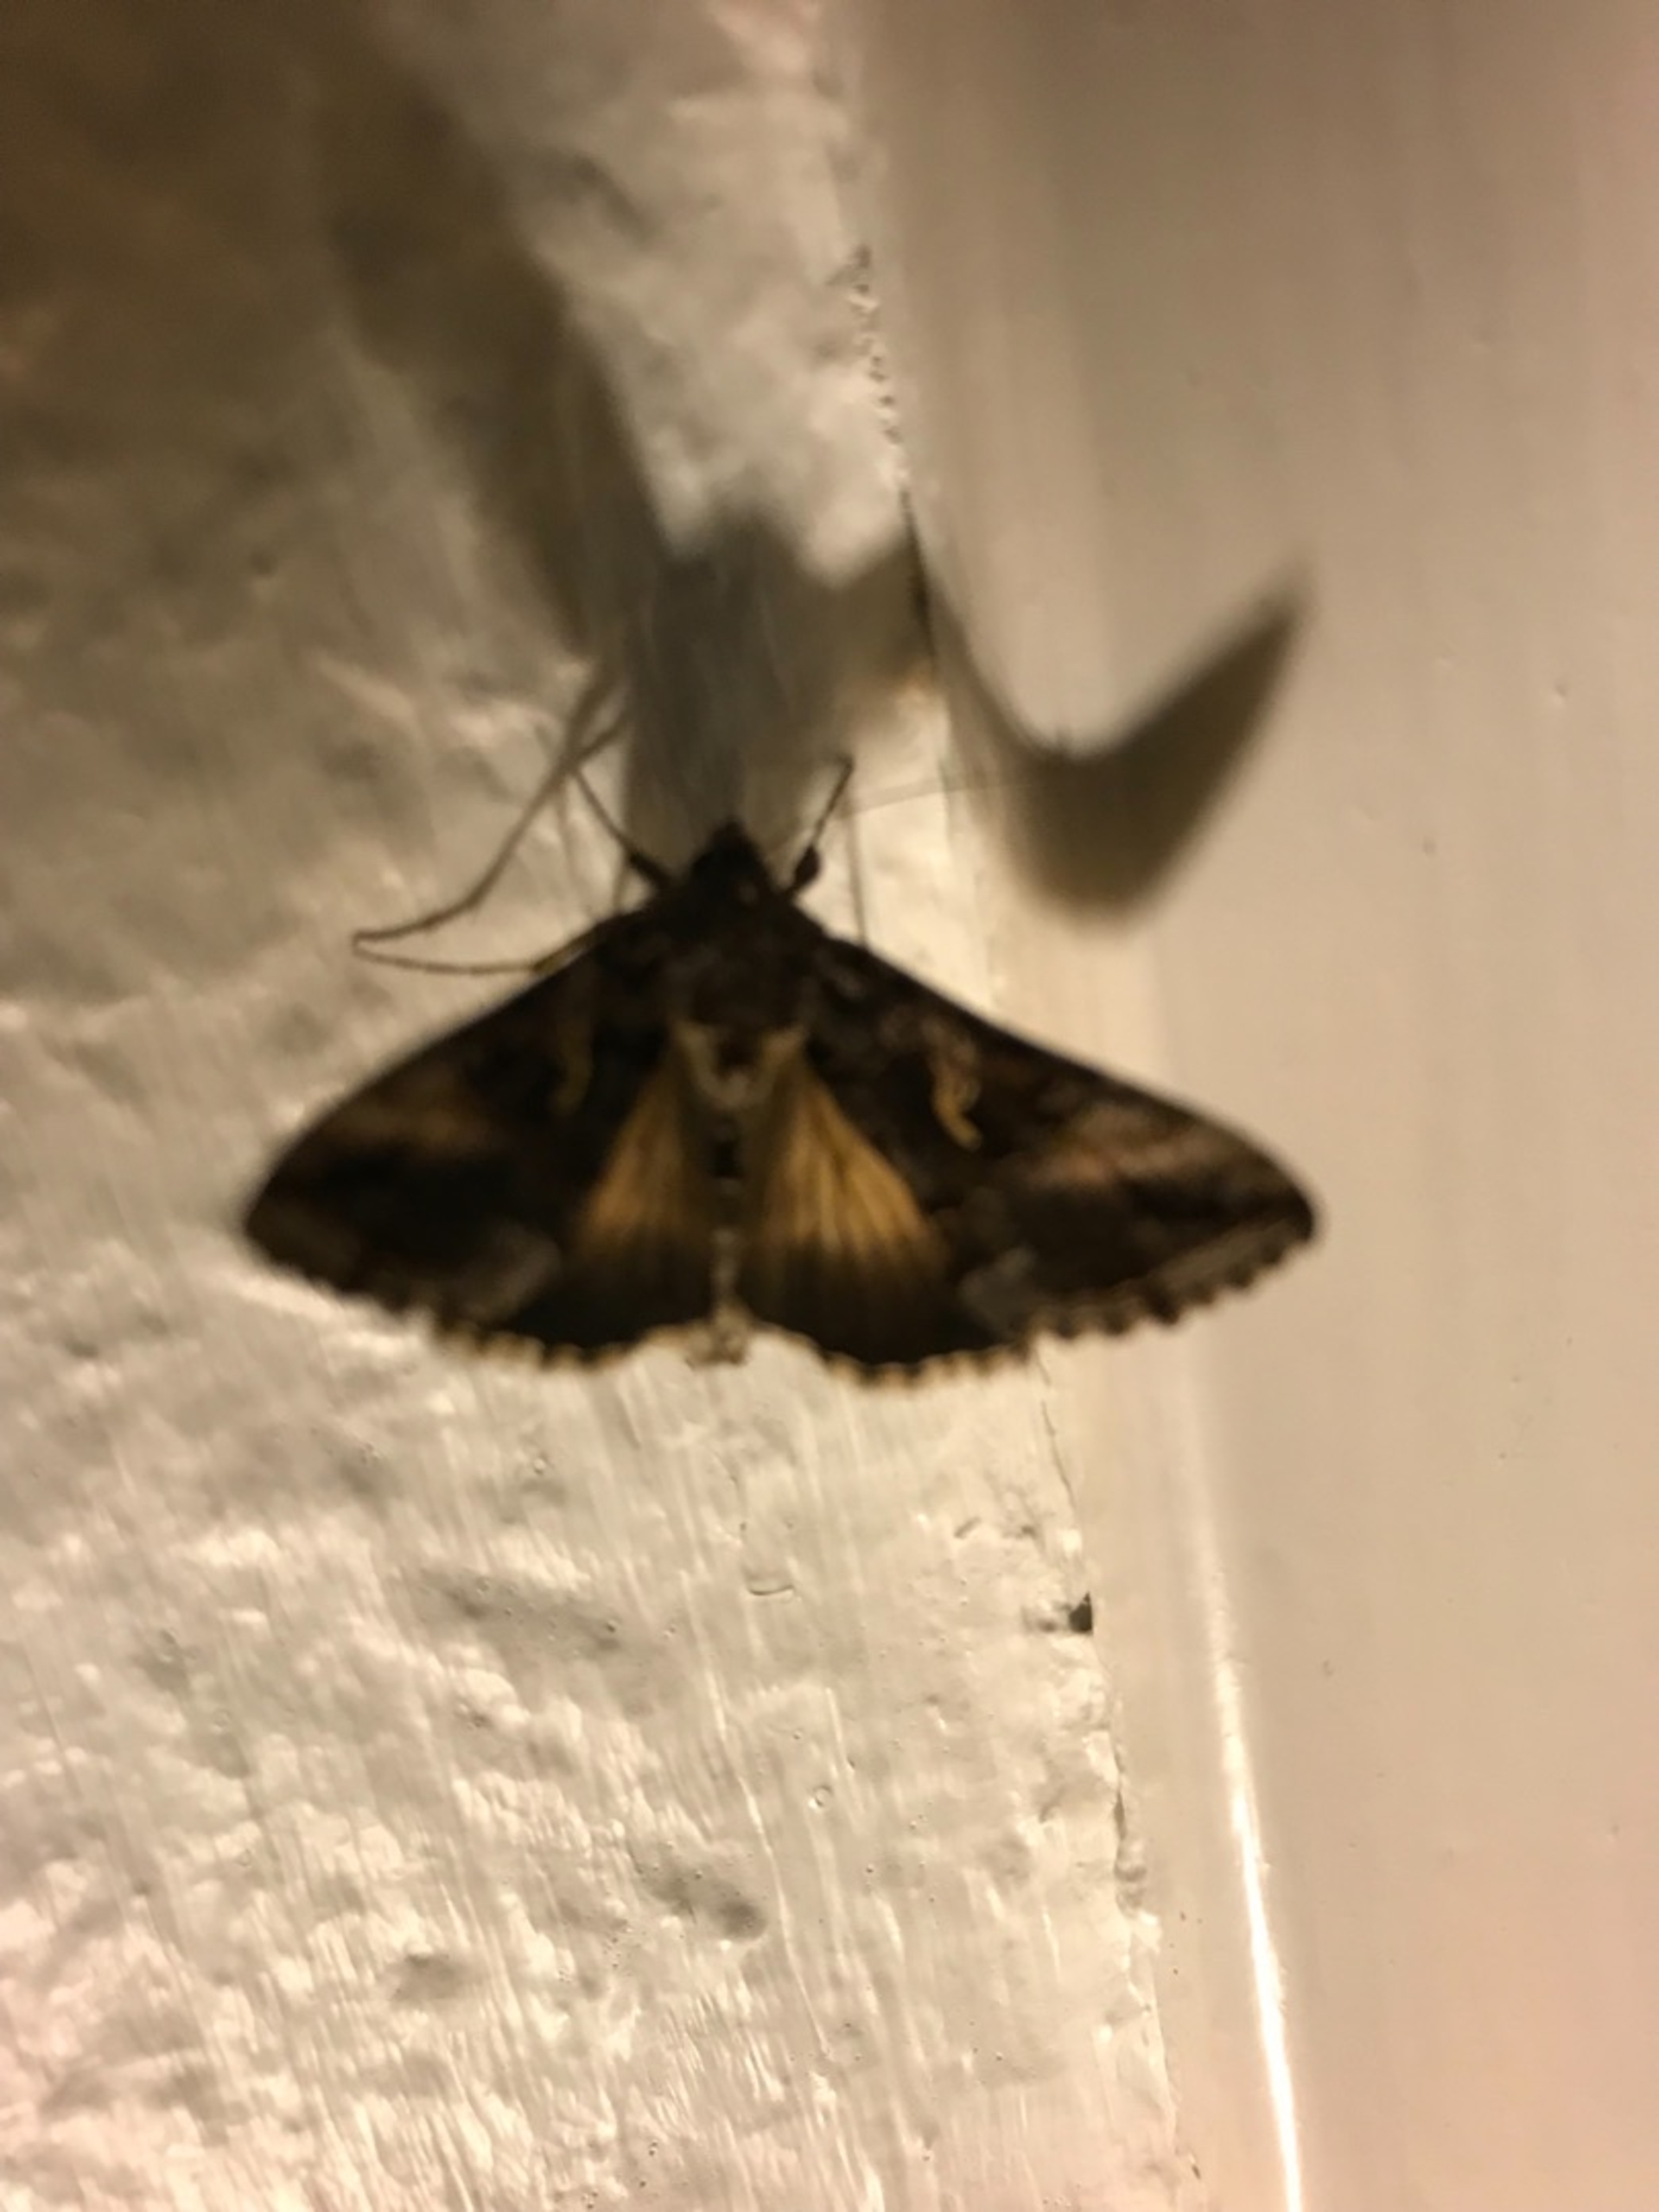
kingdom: Animalia
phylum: Arthropoda
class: Insecta
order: Lepidoptera
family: Noctuidae
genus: Autographa
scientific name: Autographa gamma
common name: Gammaugle
